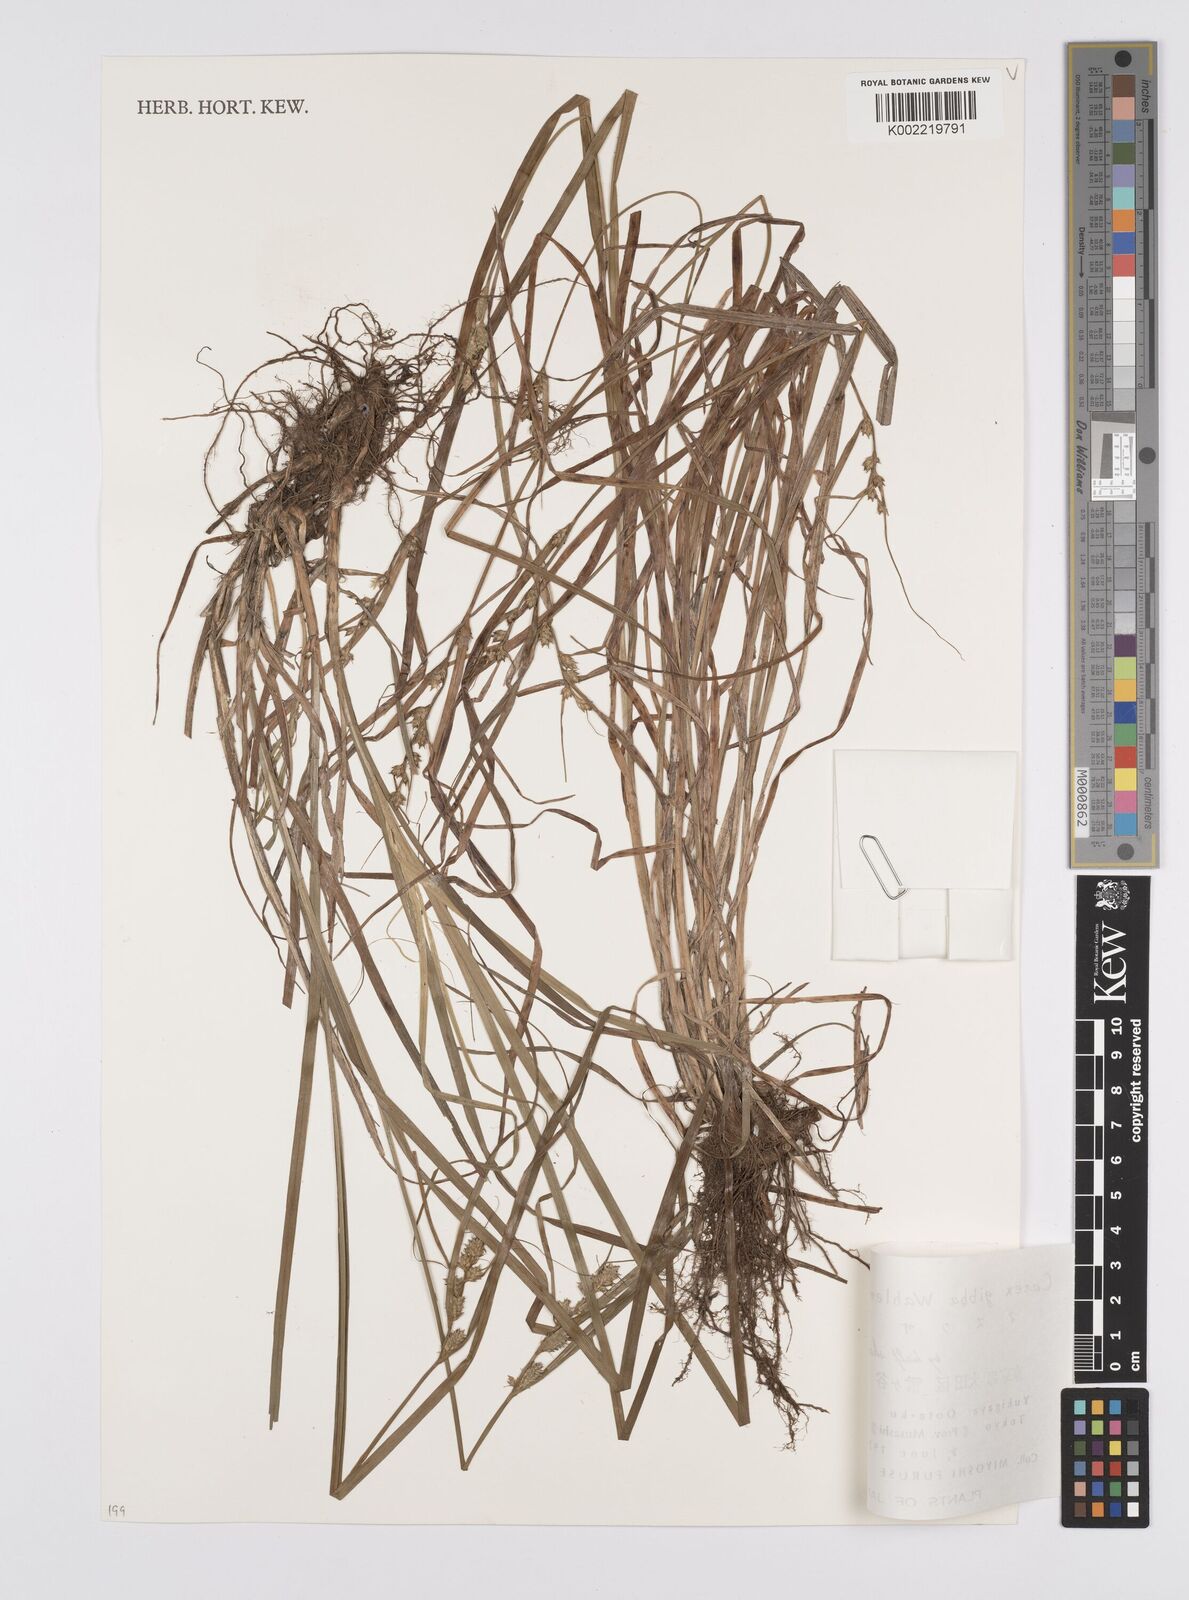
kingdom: Plantae
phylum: Tracheophyta
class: Liliopsida
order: Poales
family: Cyperaceae
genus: Carex
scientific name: Carex gibba
